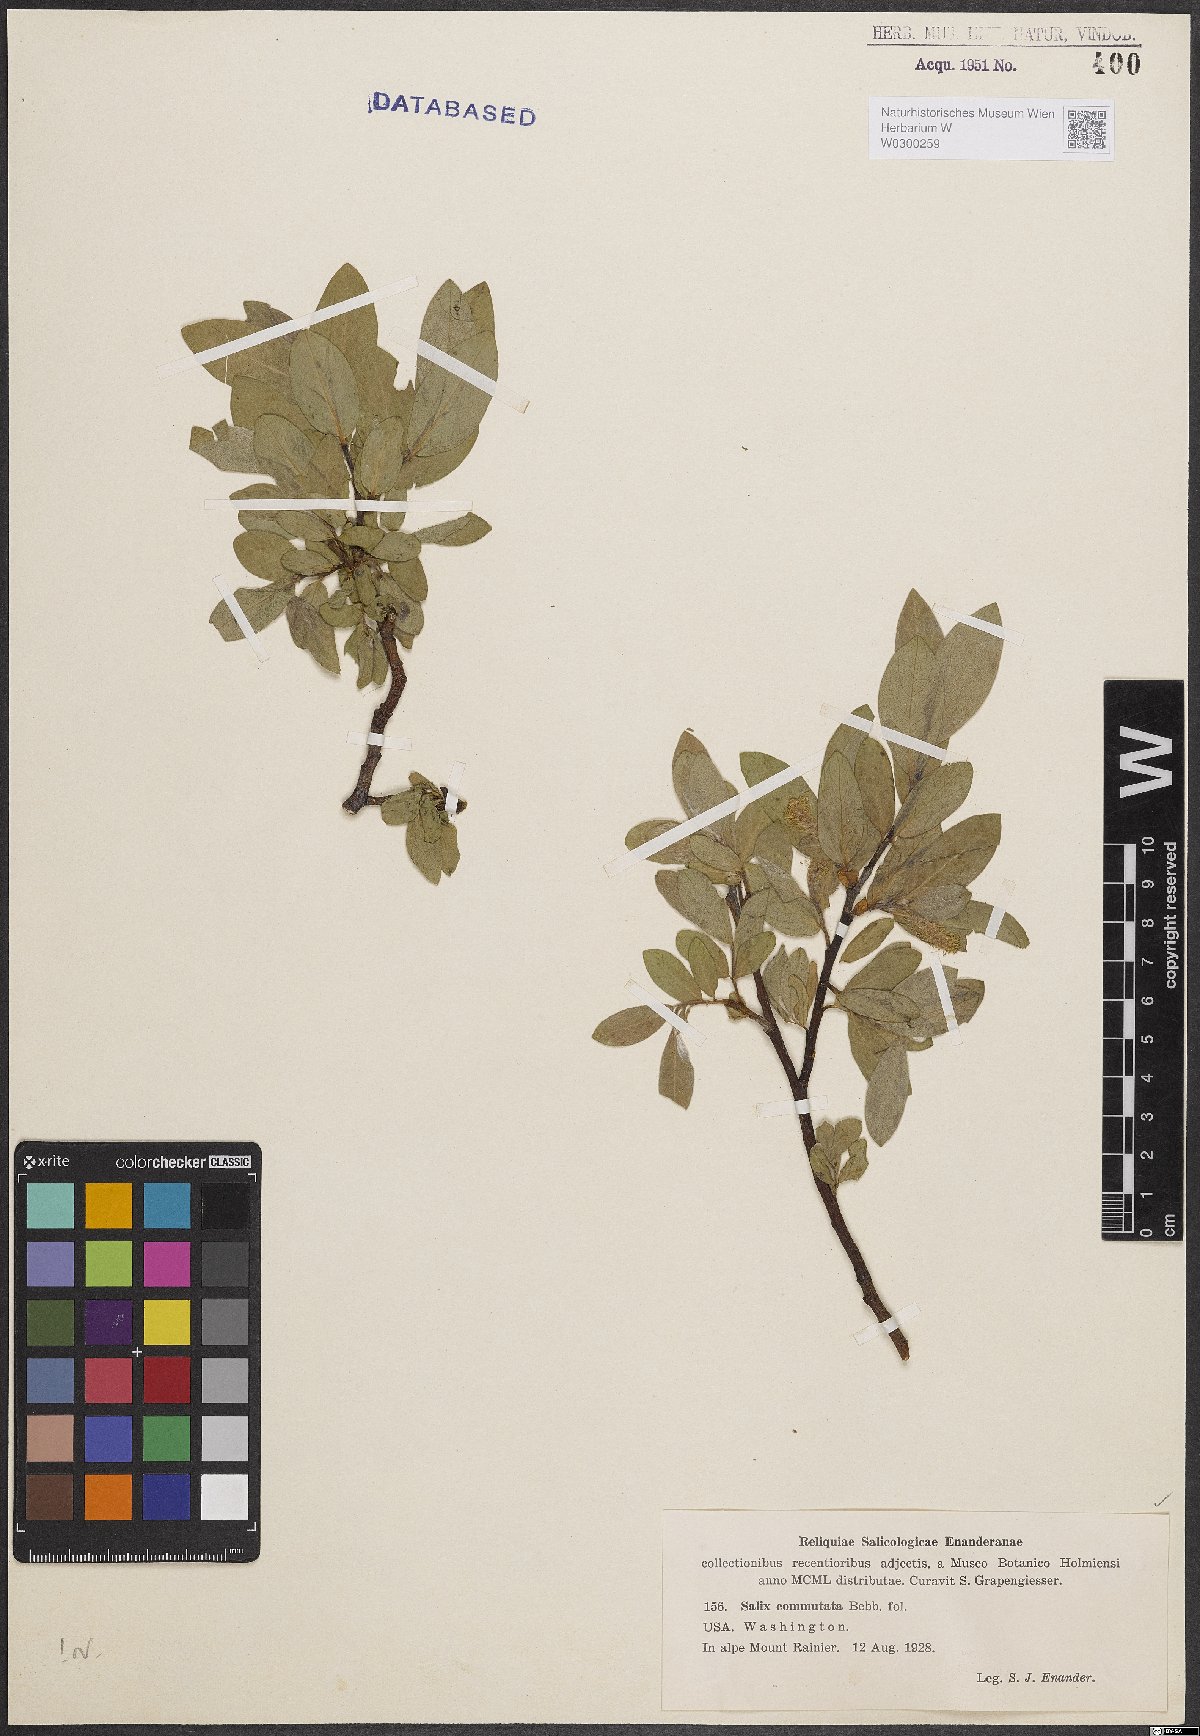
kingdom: Plantae
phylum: Tracheophyta
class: Magnoliopsida
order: Malpighiales
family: Salicaceae
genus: Salix
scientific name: Salix commutata
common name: Under-green willow
